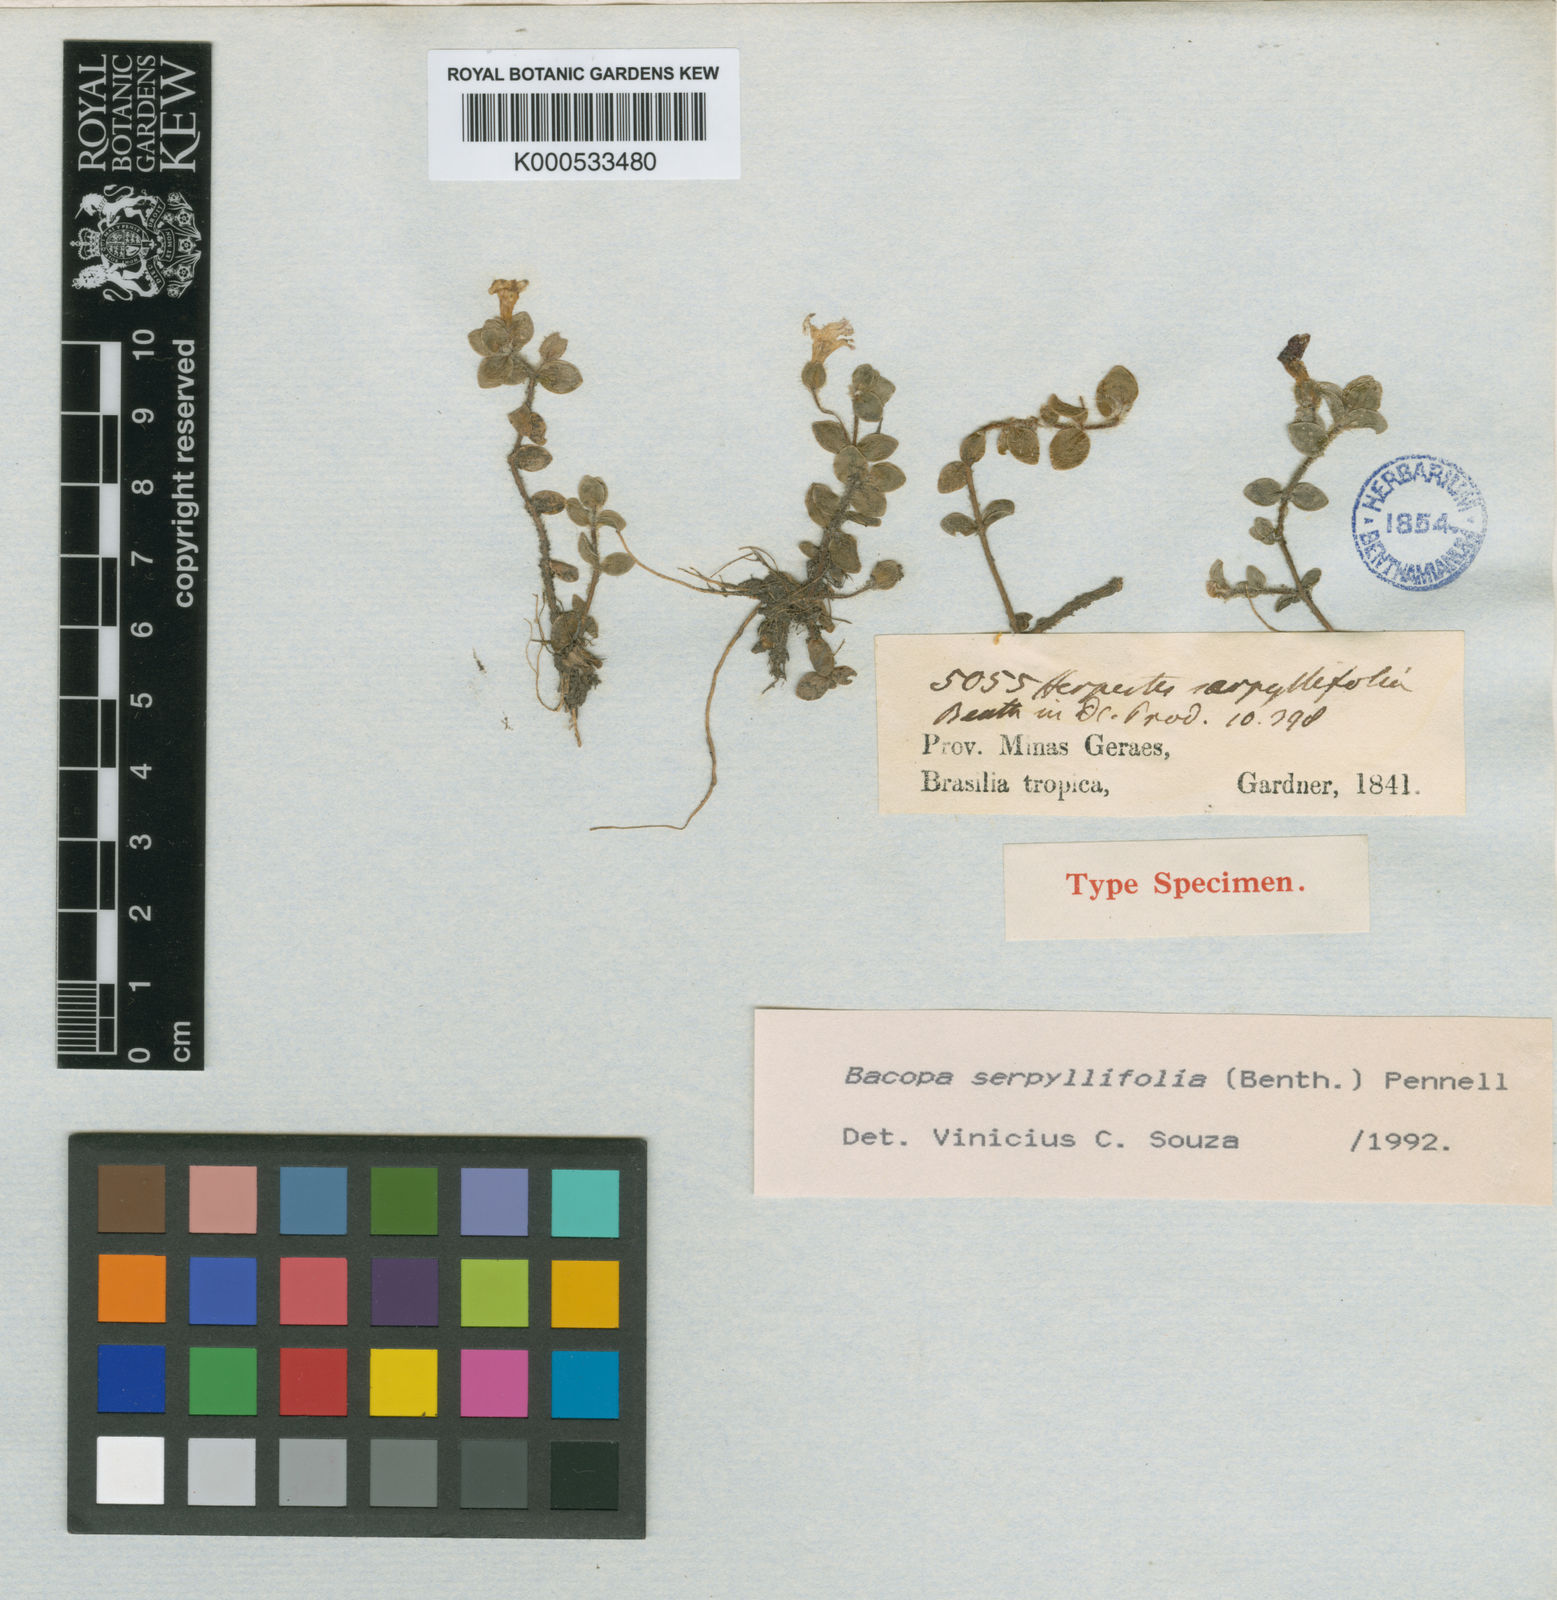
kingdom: Plantae
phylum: Tracheophyta
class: Magnoliopsida
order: Lamiales
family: Plantaginaceae
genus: Bacopa
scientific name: Bacopa serpyllifolia
